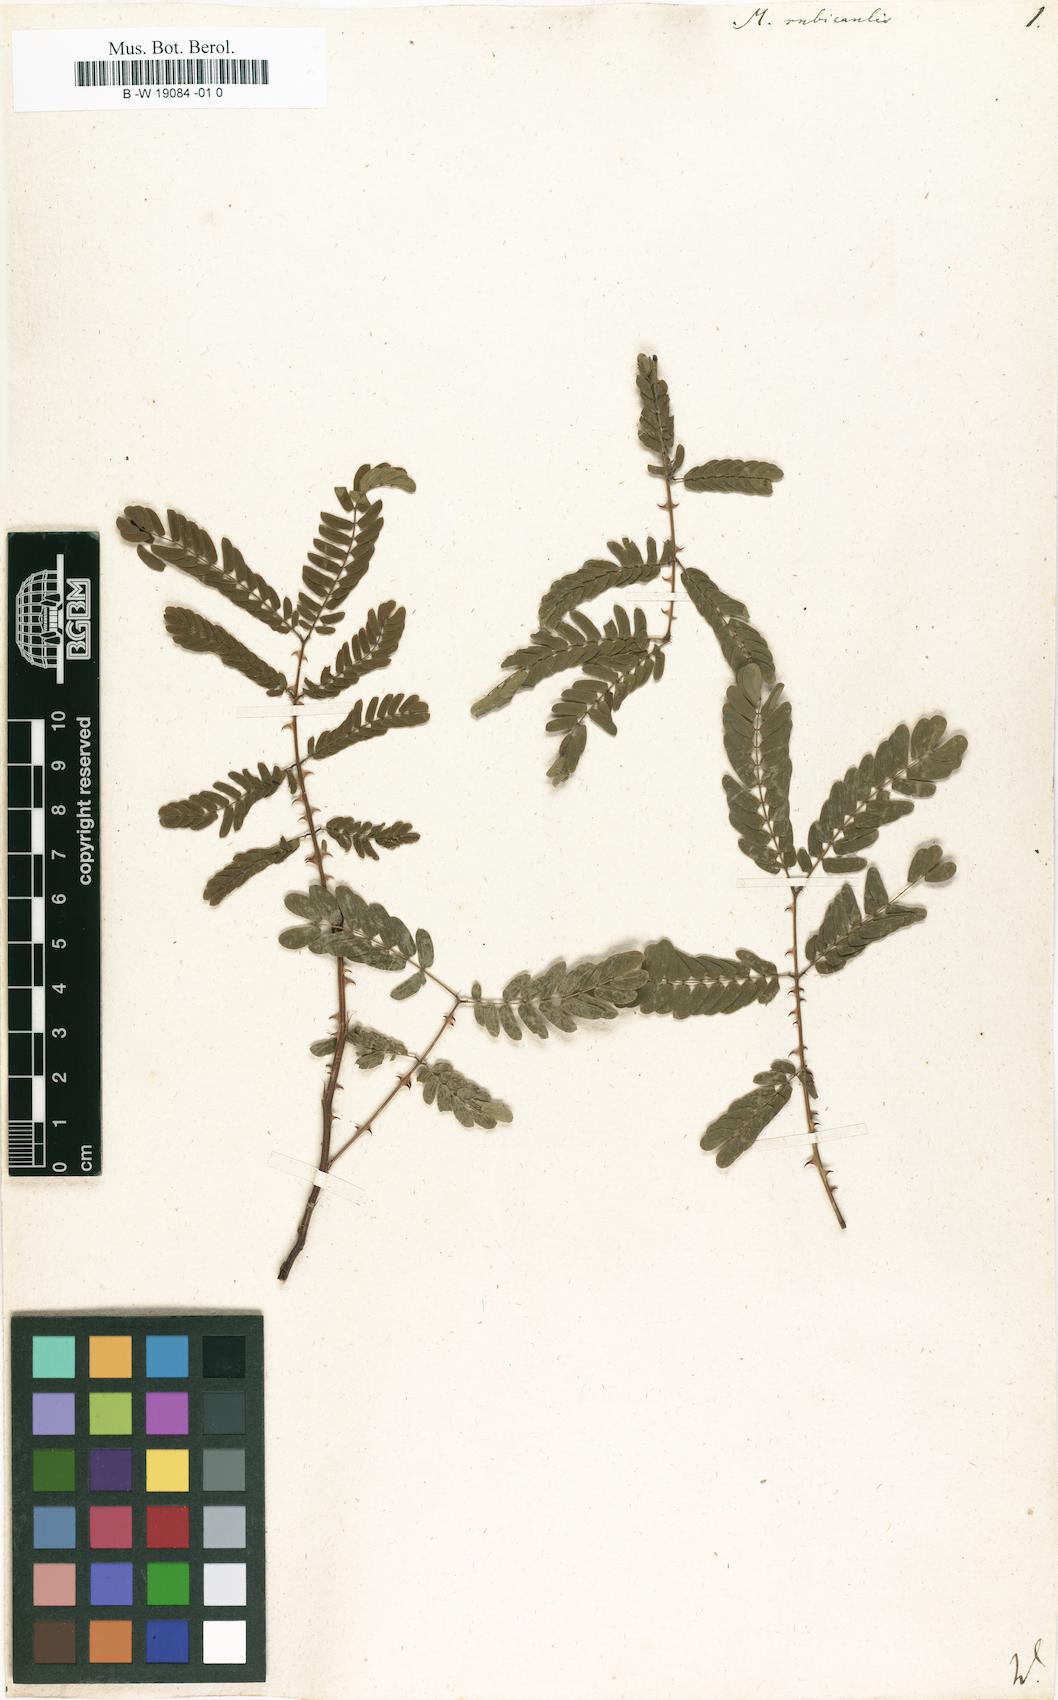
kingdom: Plantae
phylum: Tracheophyta
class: Magnoliopsida
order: Fabales
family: Fabaceae
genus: Mimosa
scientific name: Mimosa rubricaulis
